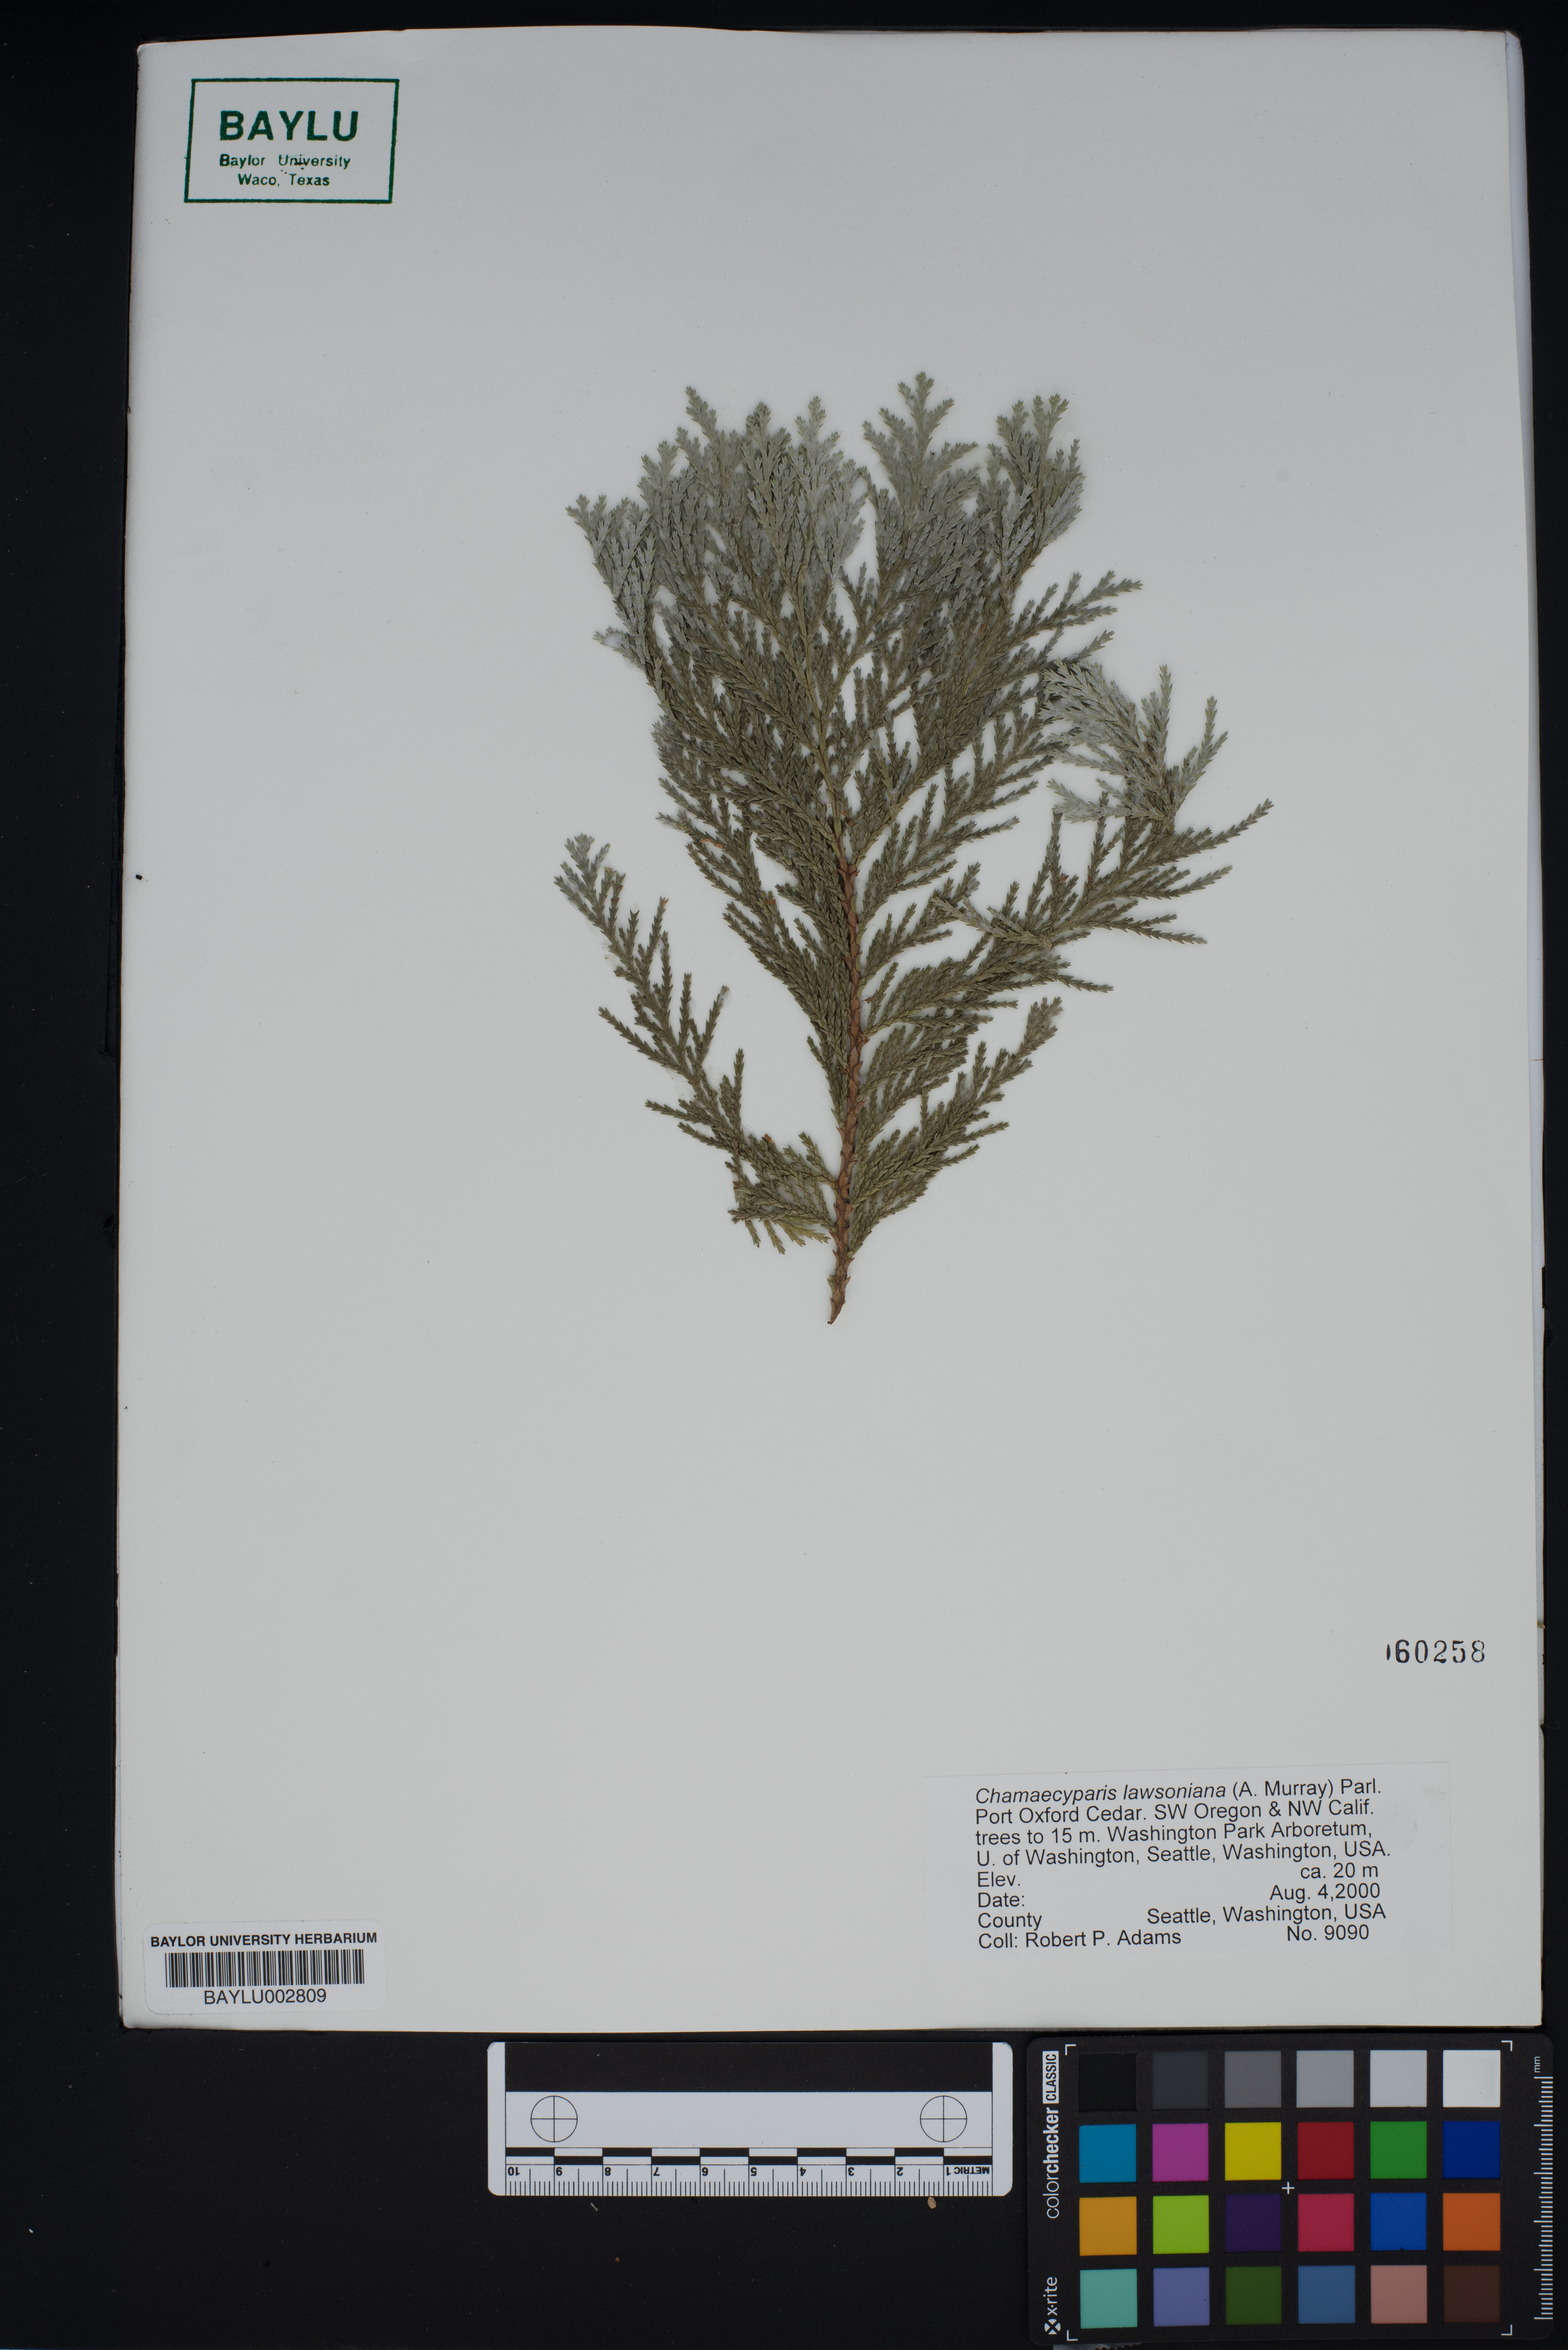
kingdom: Plantae
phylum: Tracheophyta
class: Pinopsida
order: Pinales
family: Cupressaceae
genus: Chamaecyparis
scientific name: Chamaecyparis lawsoniana
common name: Lawson's cypress
